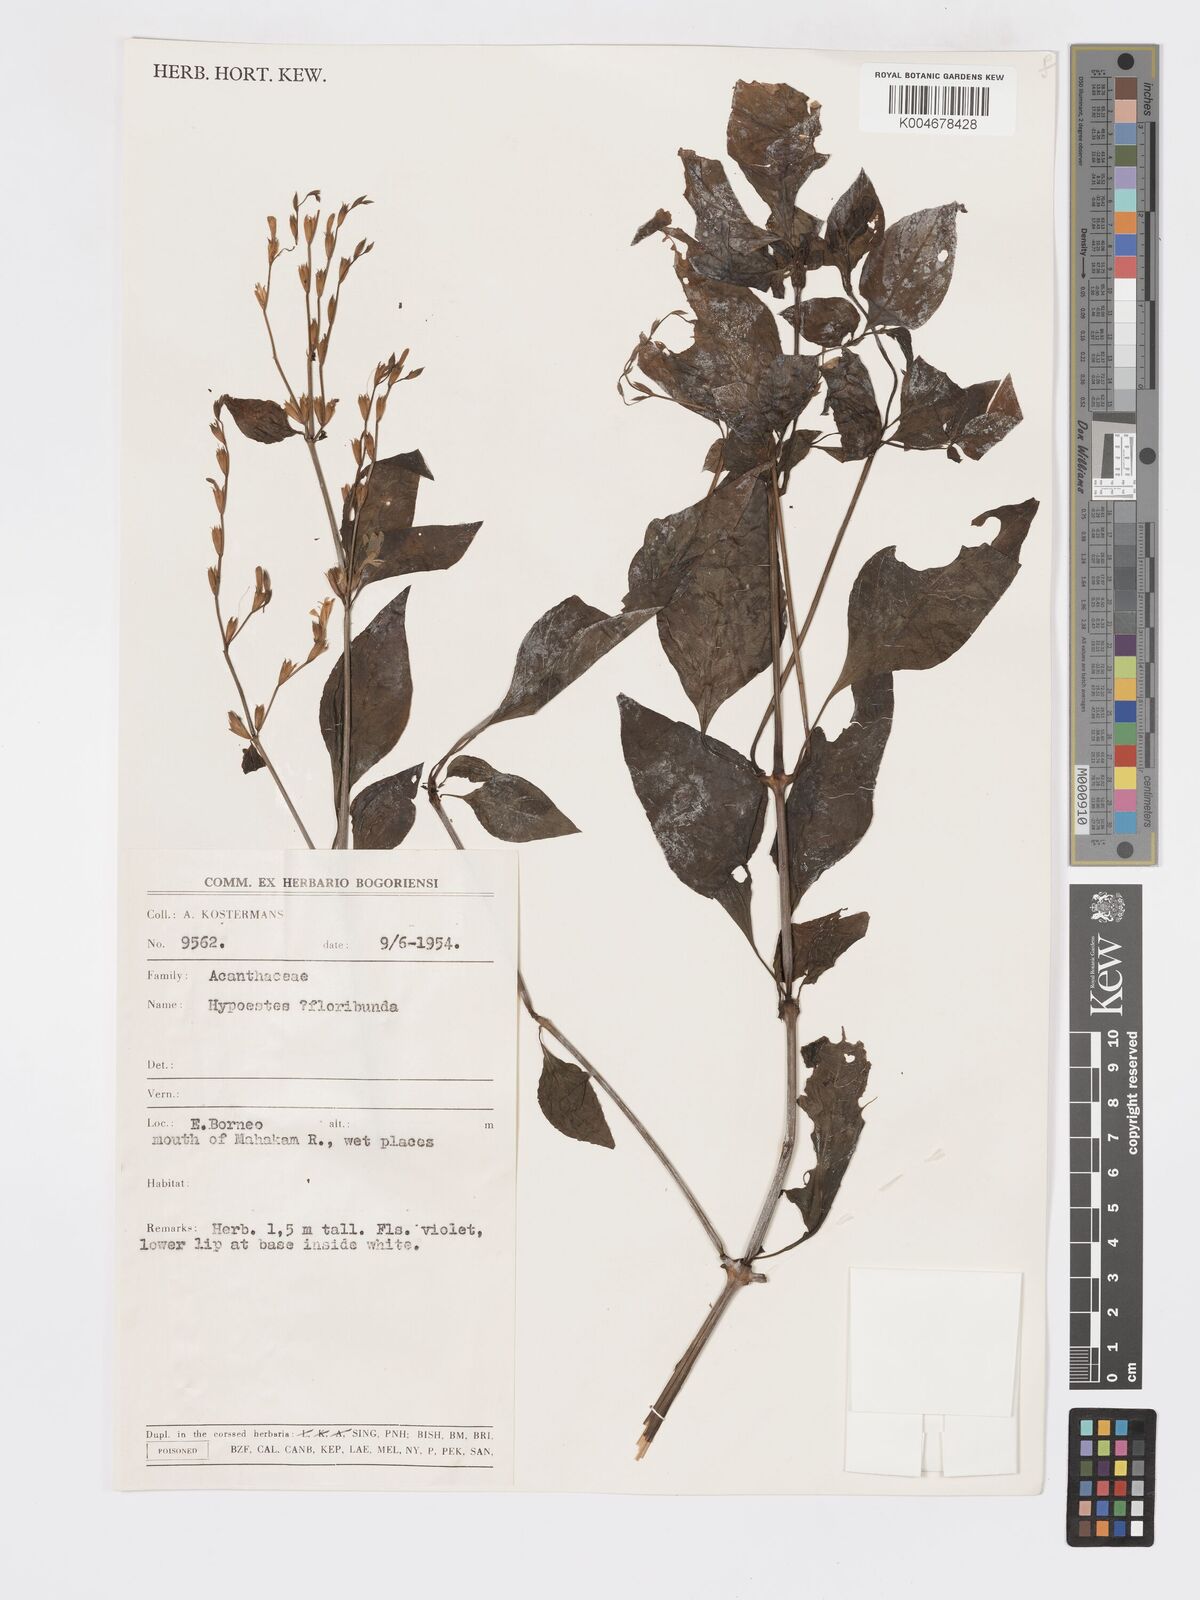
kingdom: Plantae
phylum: Tracheophyta
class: Magnoliopsida
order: Lamiales
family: Acanthaceae
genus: Hypoestes
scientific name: Hypoestes
